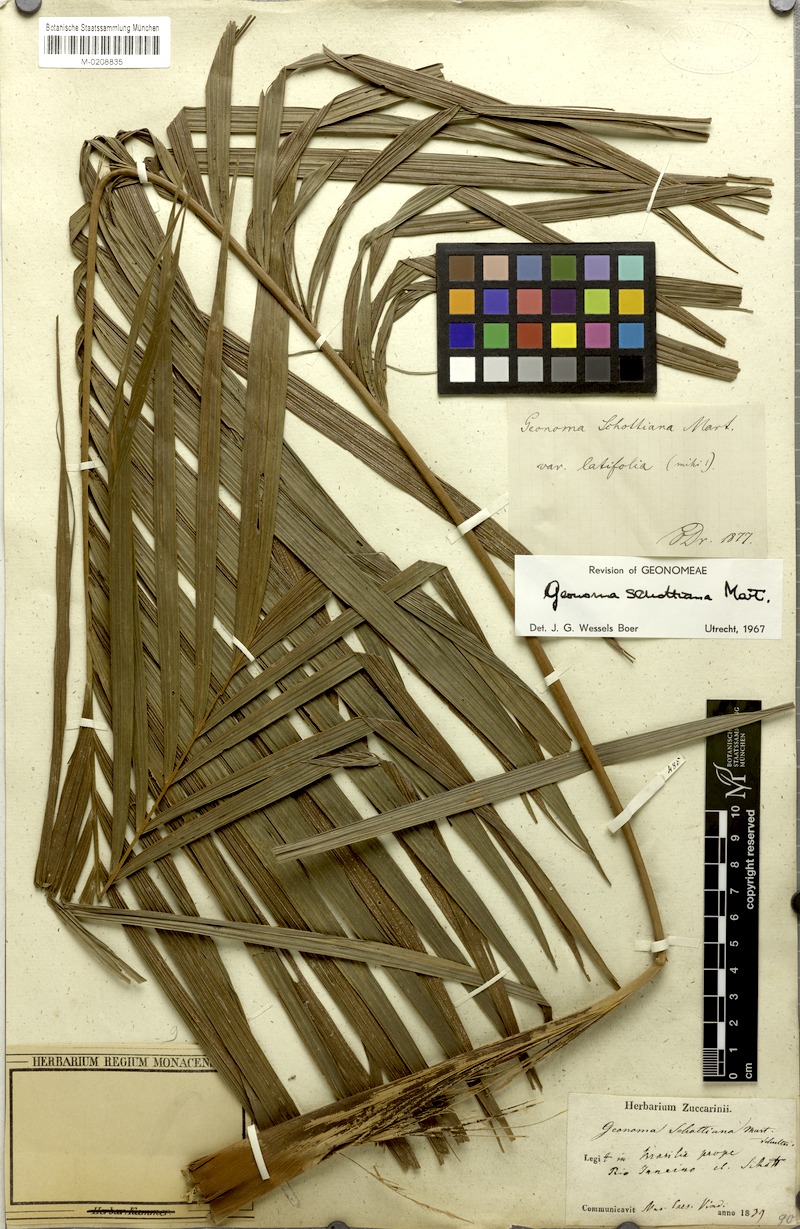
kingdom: Plantae
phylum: Tracheophyta
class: Liliopsida
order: Arecales
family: Arecaceae
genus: Geonoma
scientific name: Geonoma schottiana
